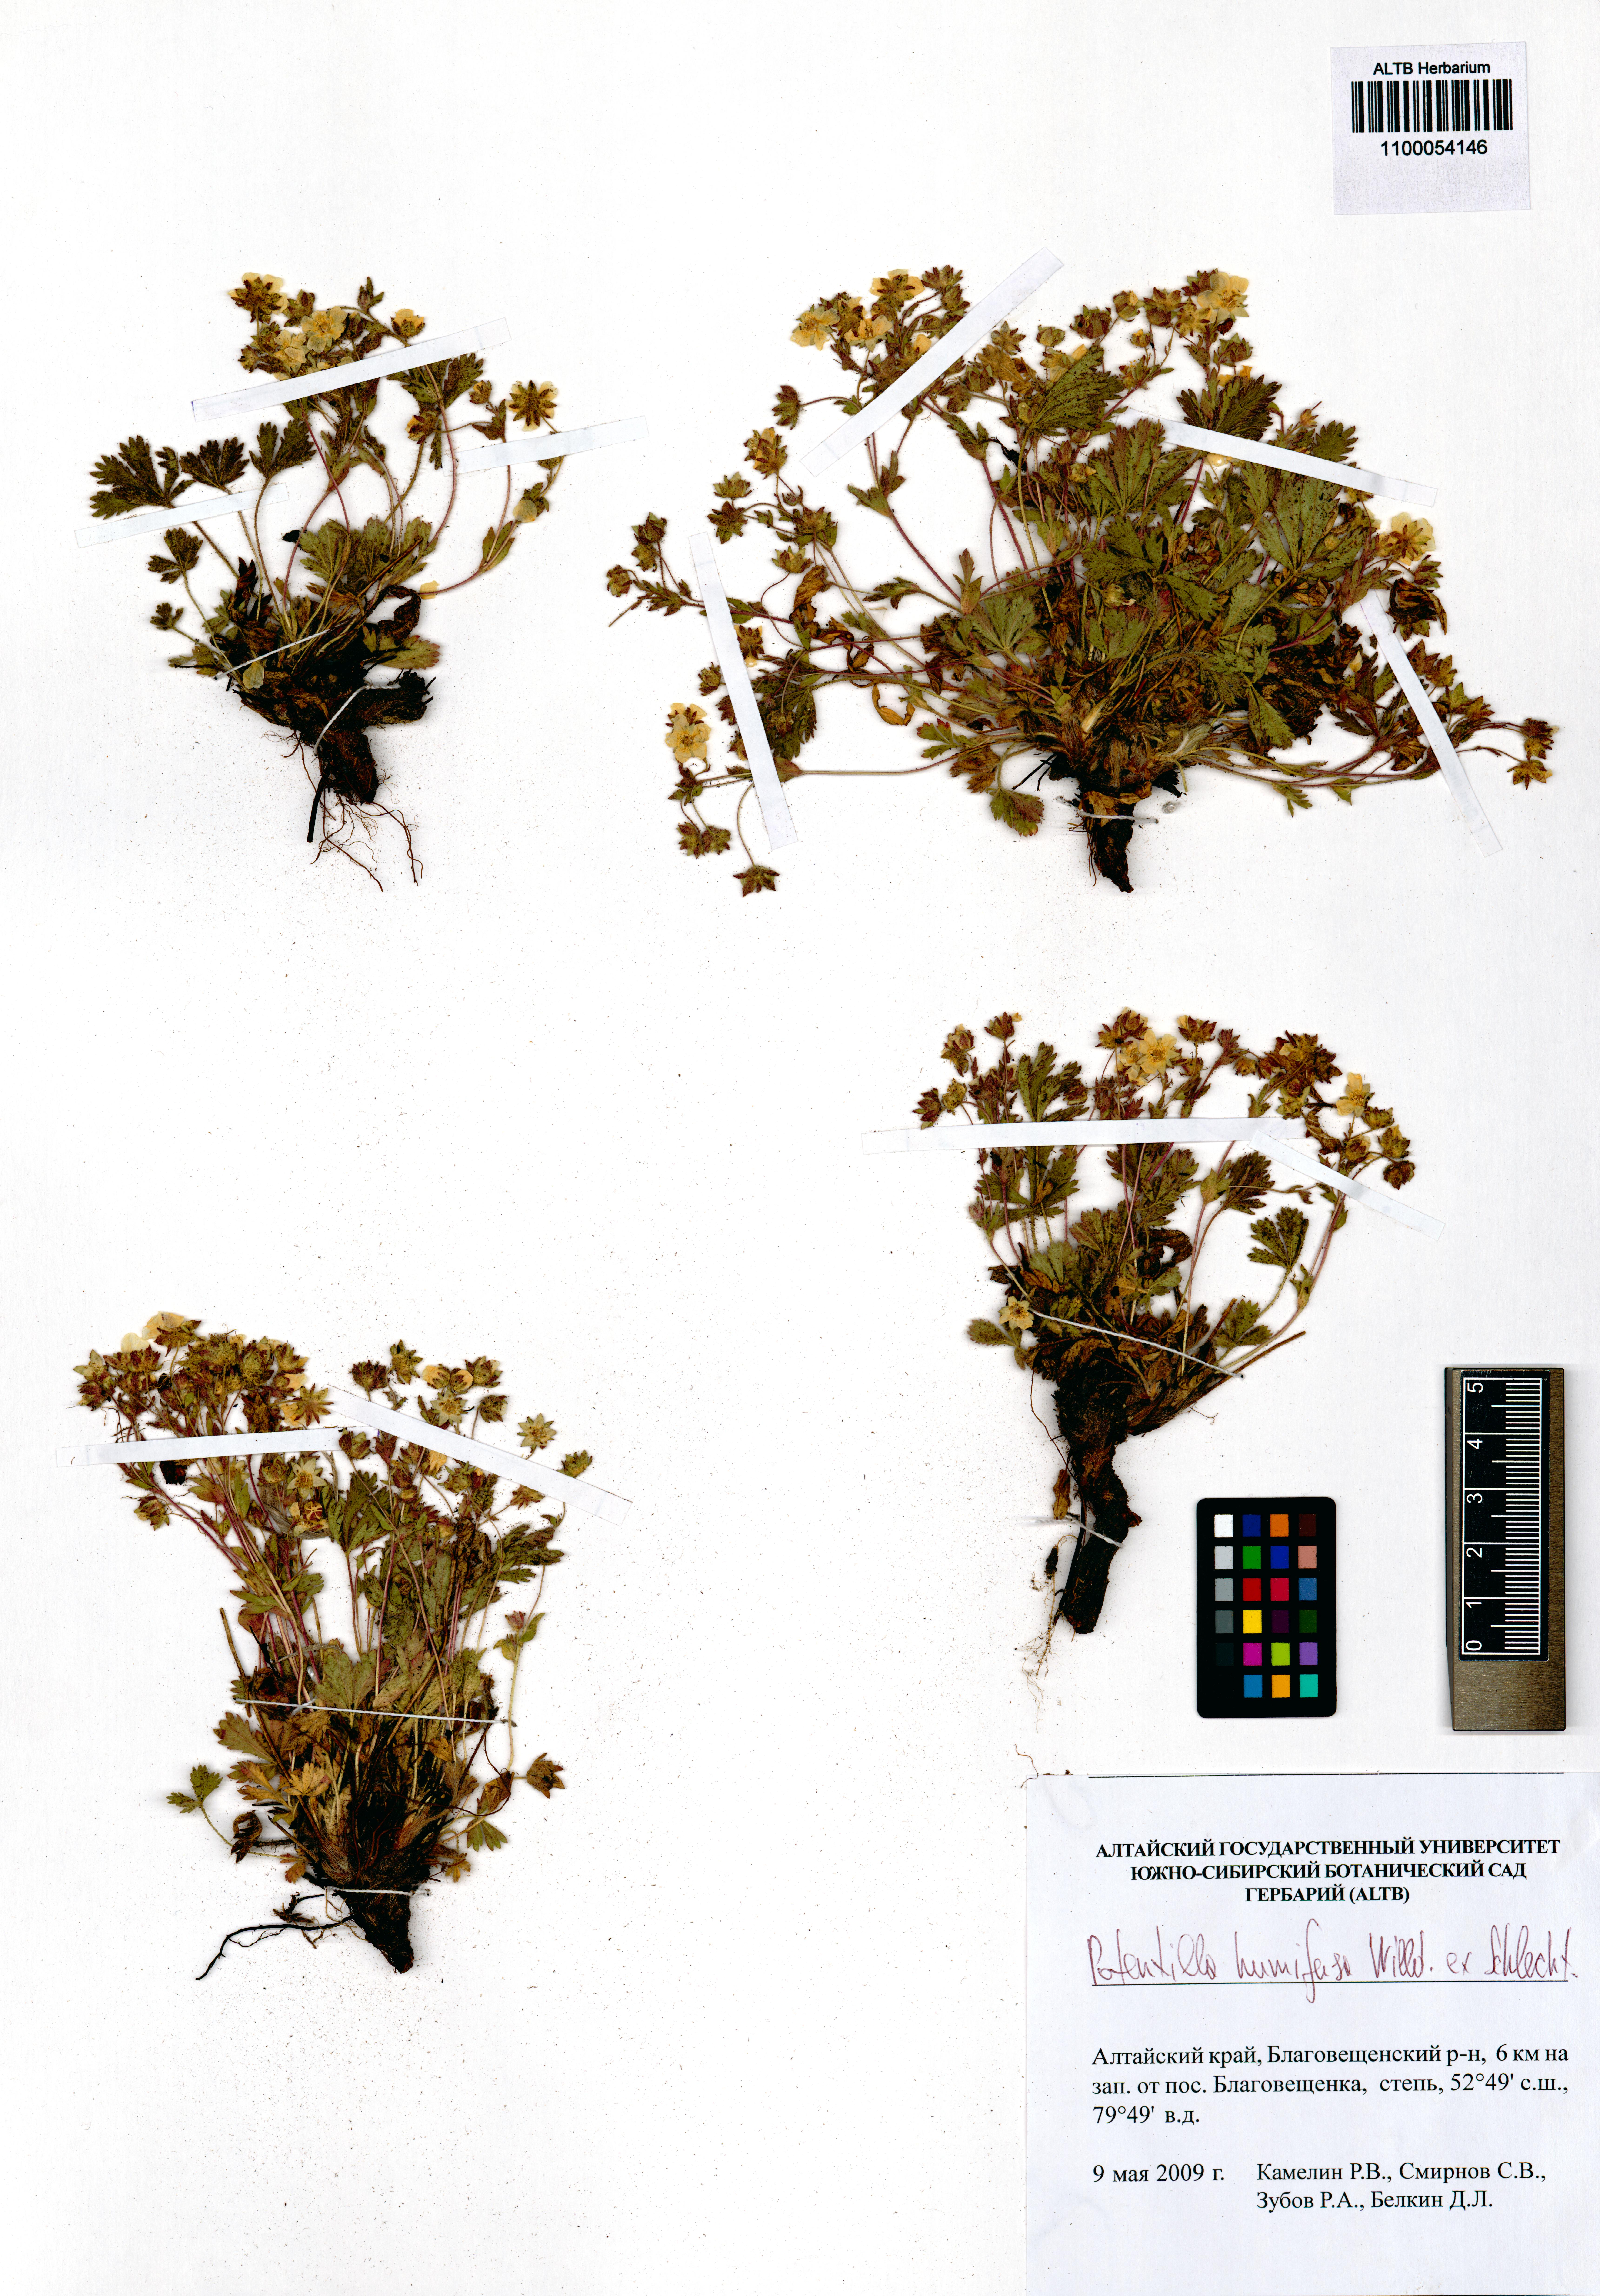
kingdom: Plantae
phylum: Tracheophyta
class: Magnoliopsida
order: Rosales
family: Rosaceae
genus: Potentilla
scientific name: Potentilla humifusa
